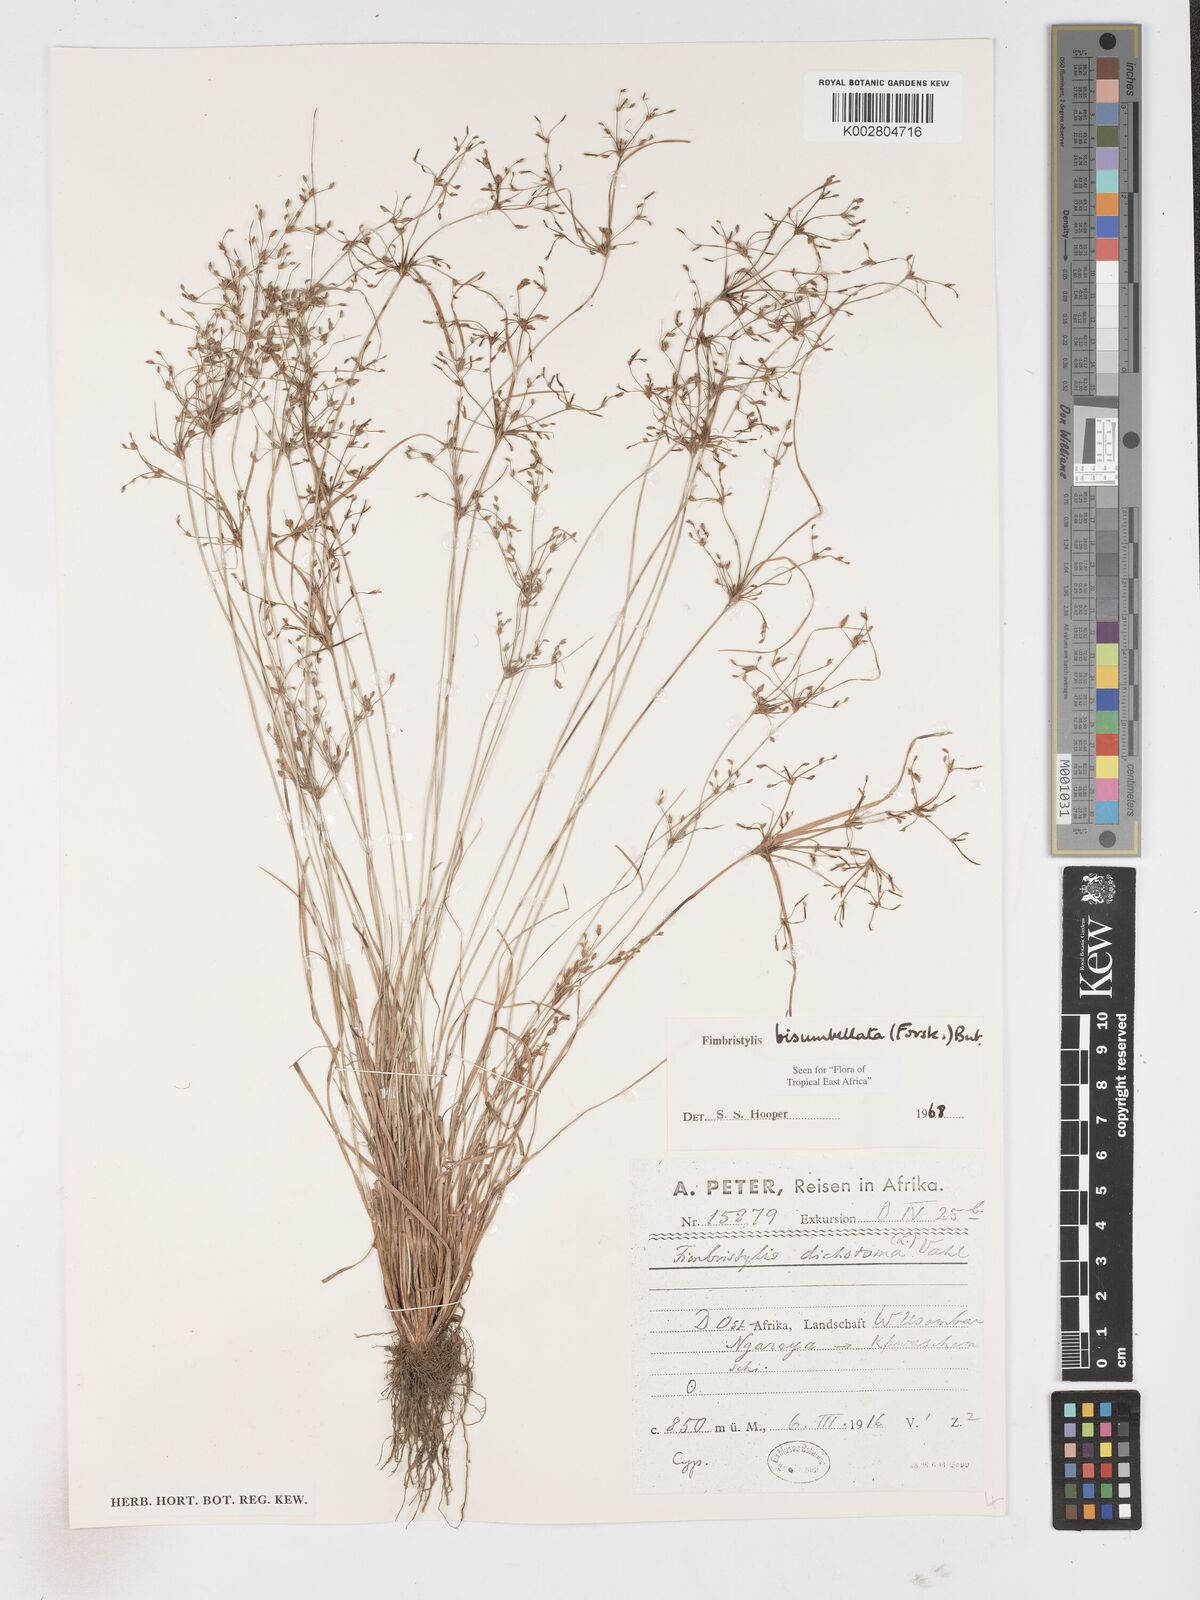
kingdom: Plantae
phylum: Tracheophyta
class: Liliopsida
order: Poales
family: Cyperaceae
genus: Fimbristylis
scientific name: Fimbristylis bisumbellata
